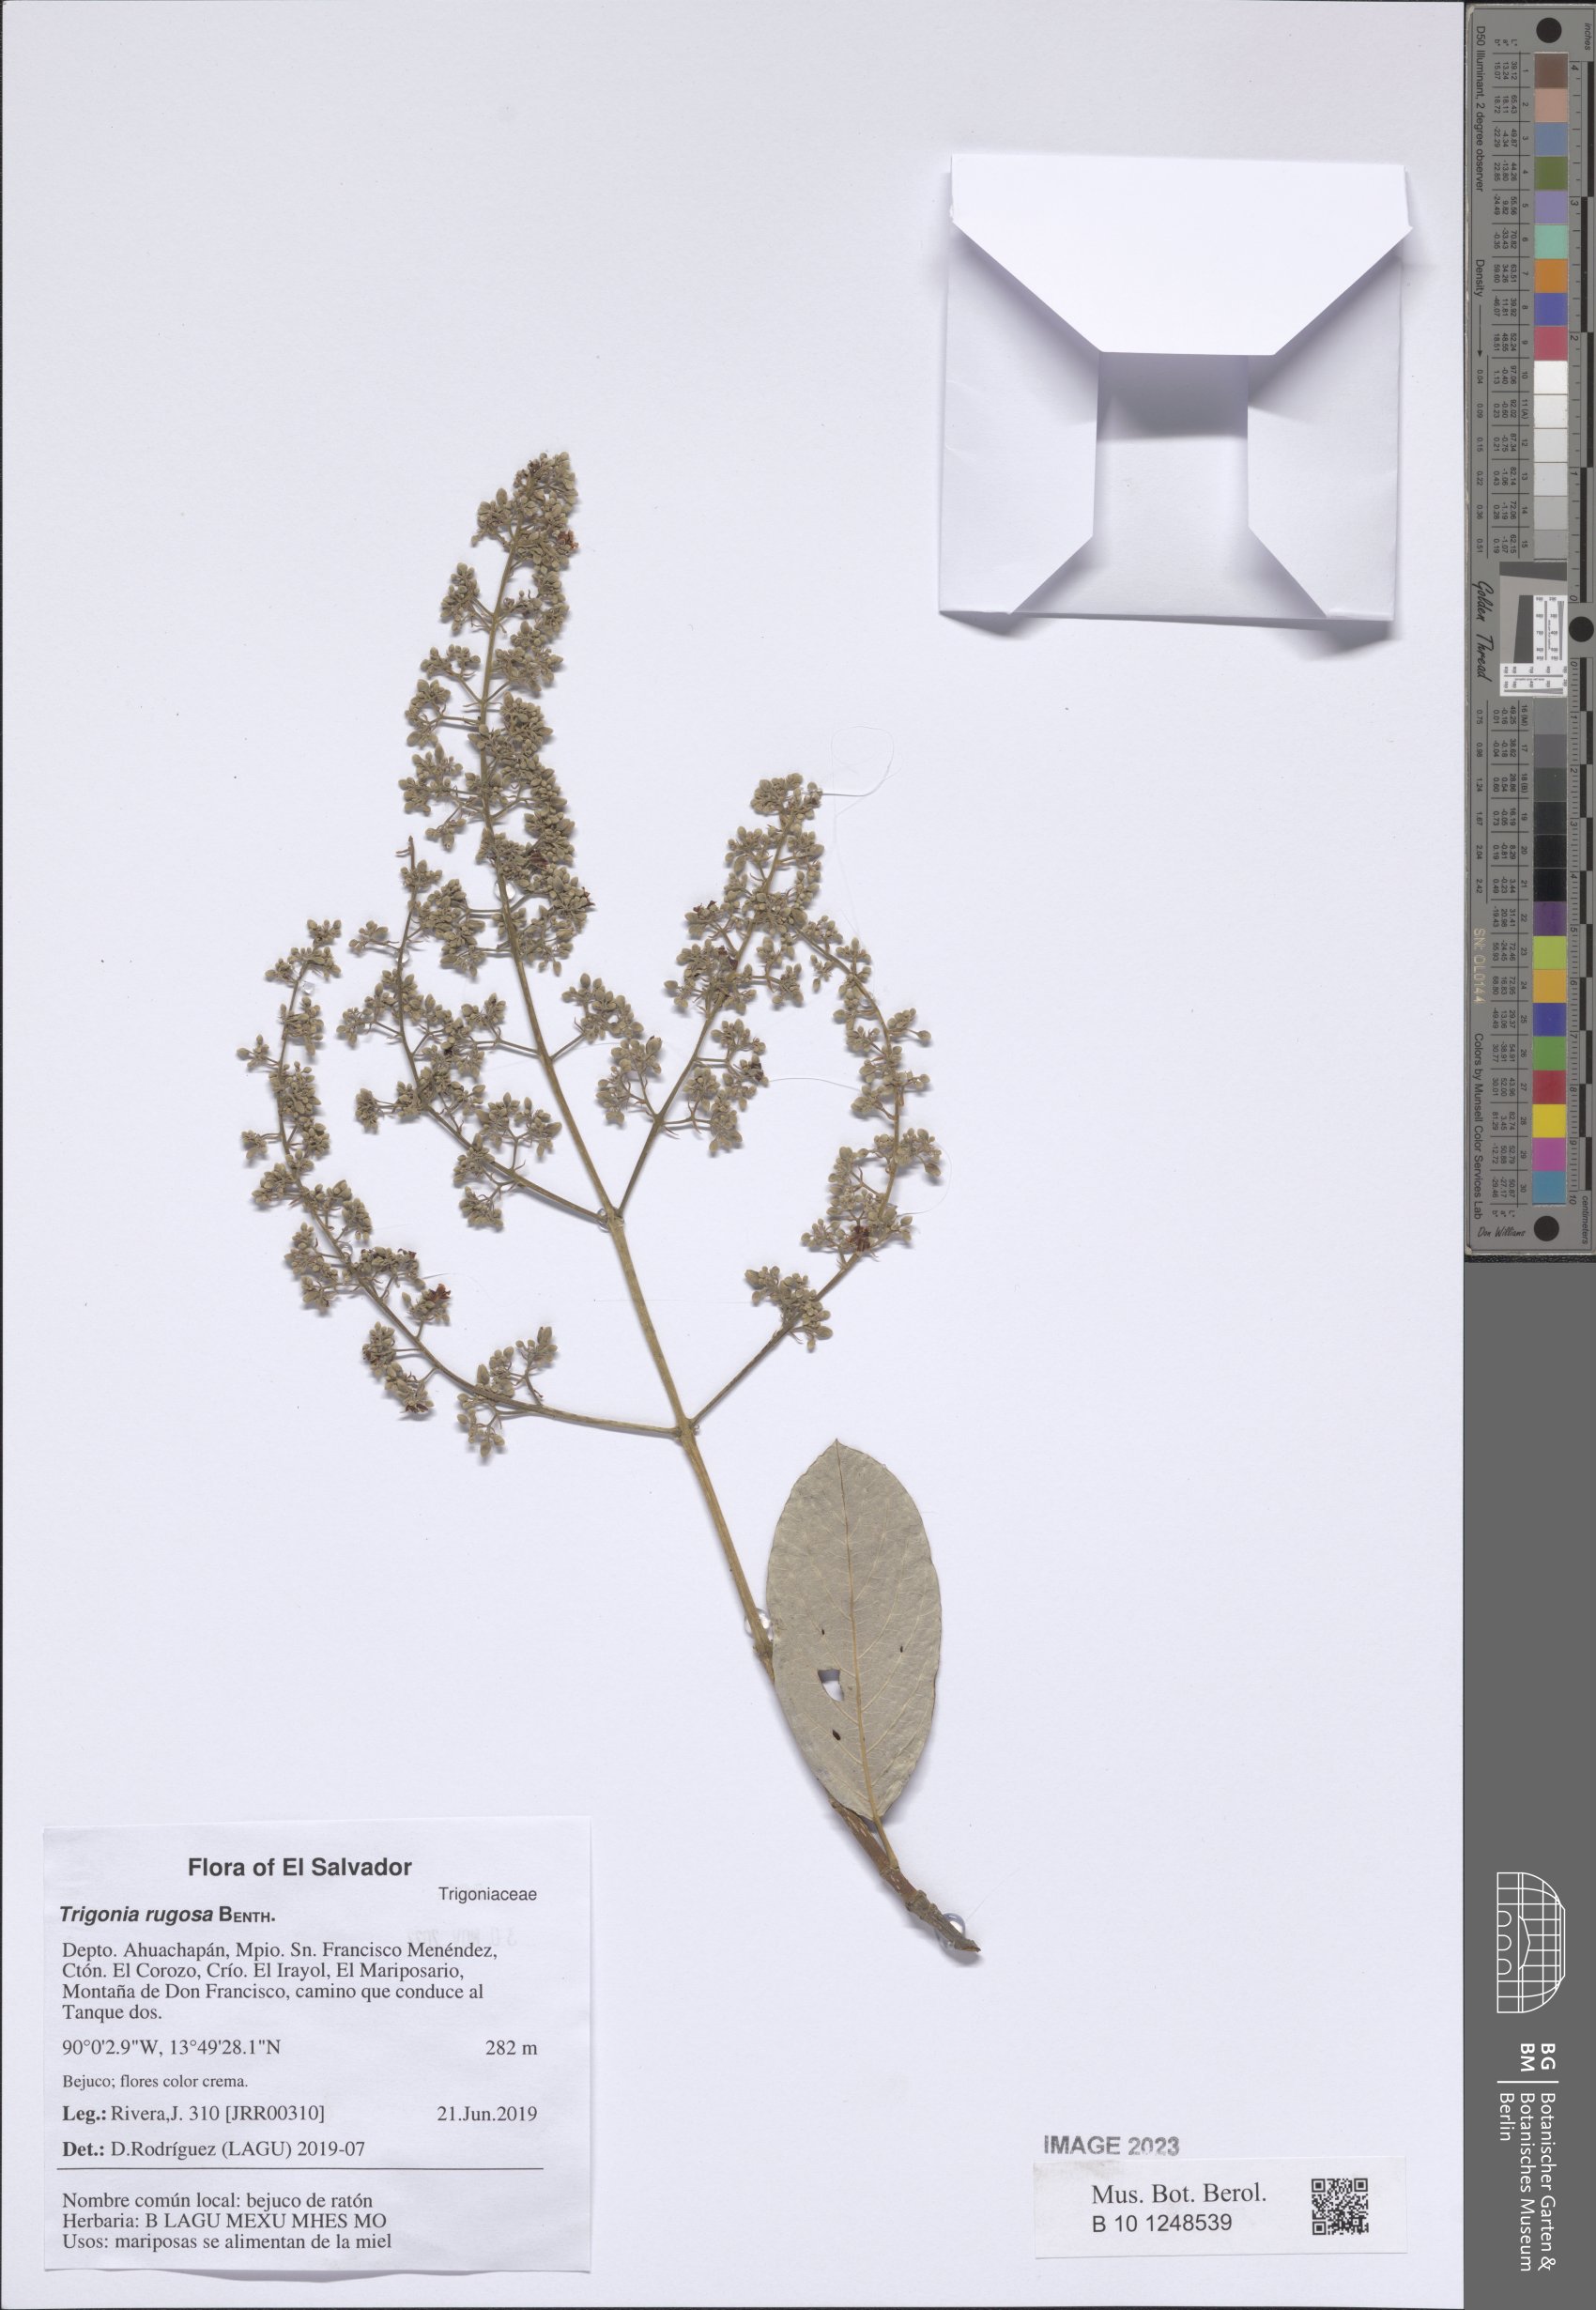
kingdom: Plantae
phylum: Tracheophyta
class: Magnoliopsida
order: Malpighiales
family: Trigoniaceae
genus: Trigonia
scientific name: Trigonia rugosa
